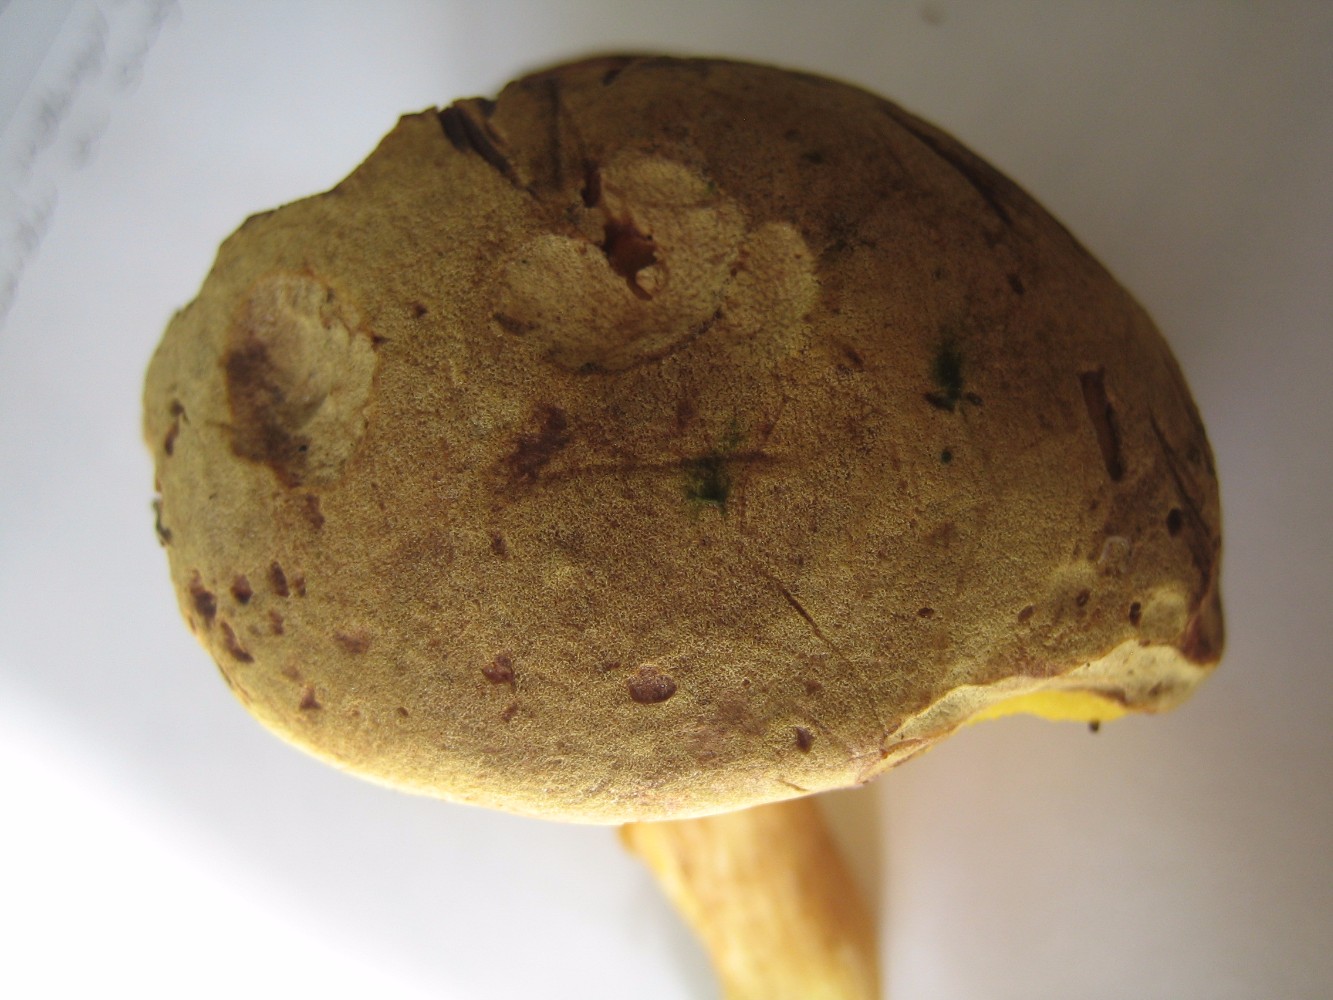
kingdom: Fungi
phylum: Basidiomycota
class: Agaricomycetes
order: Boletales
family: Boletaceae
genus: Xerocomus
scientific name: Xerocomus ferrugineus
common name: vaskeskinds-rørhat
